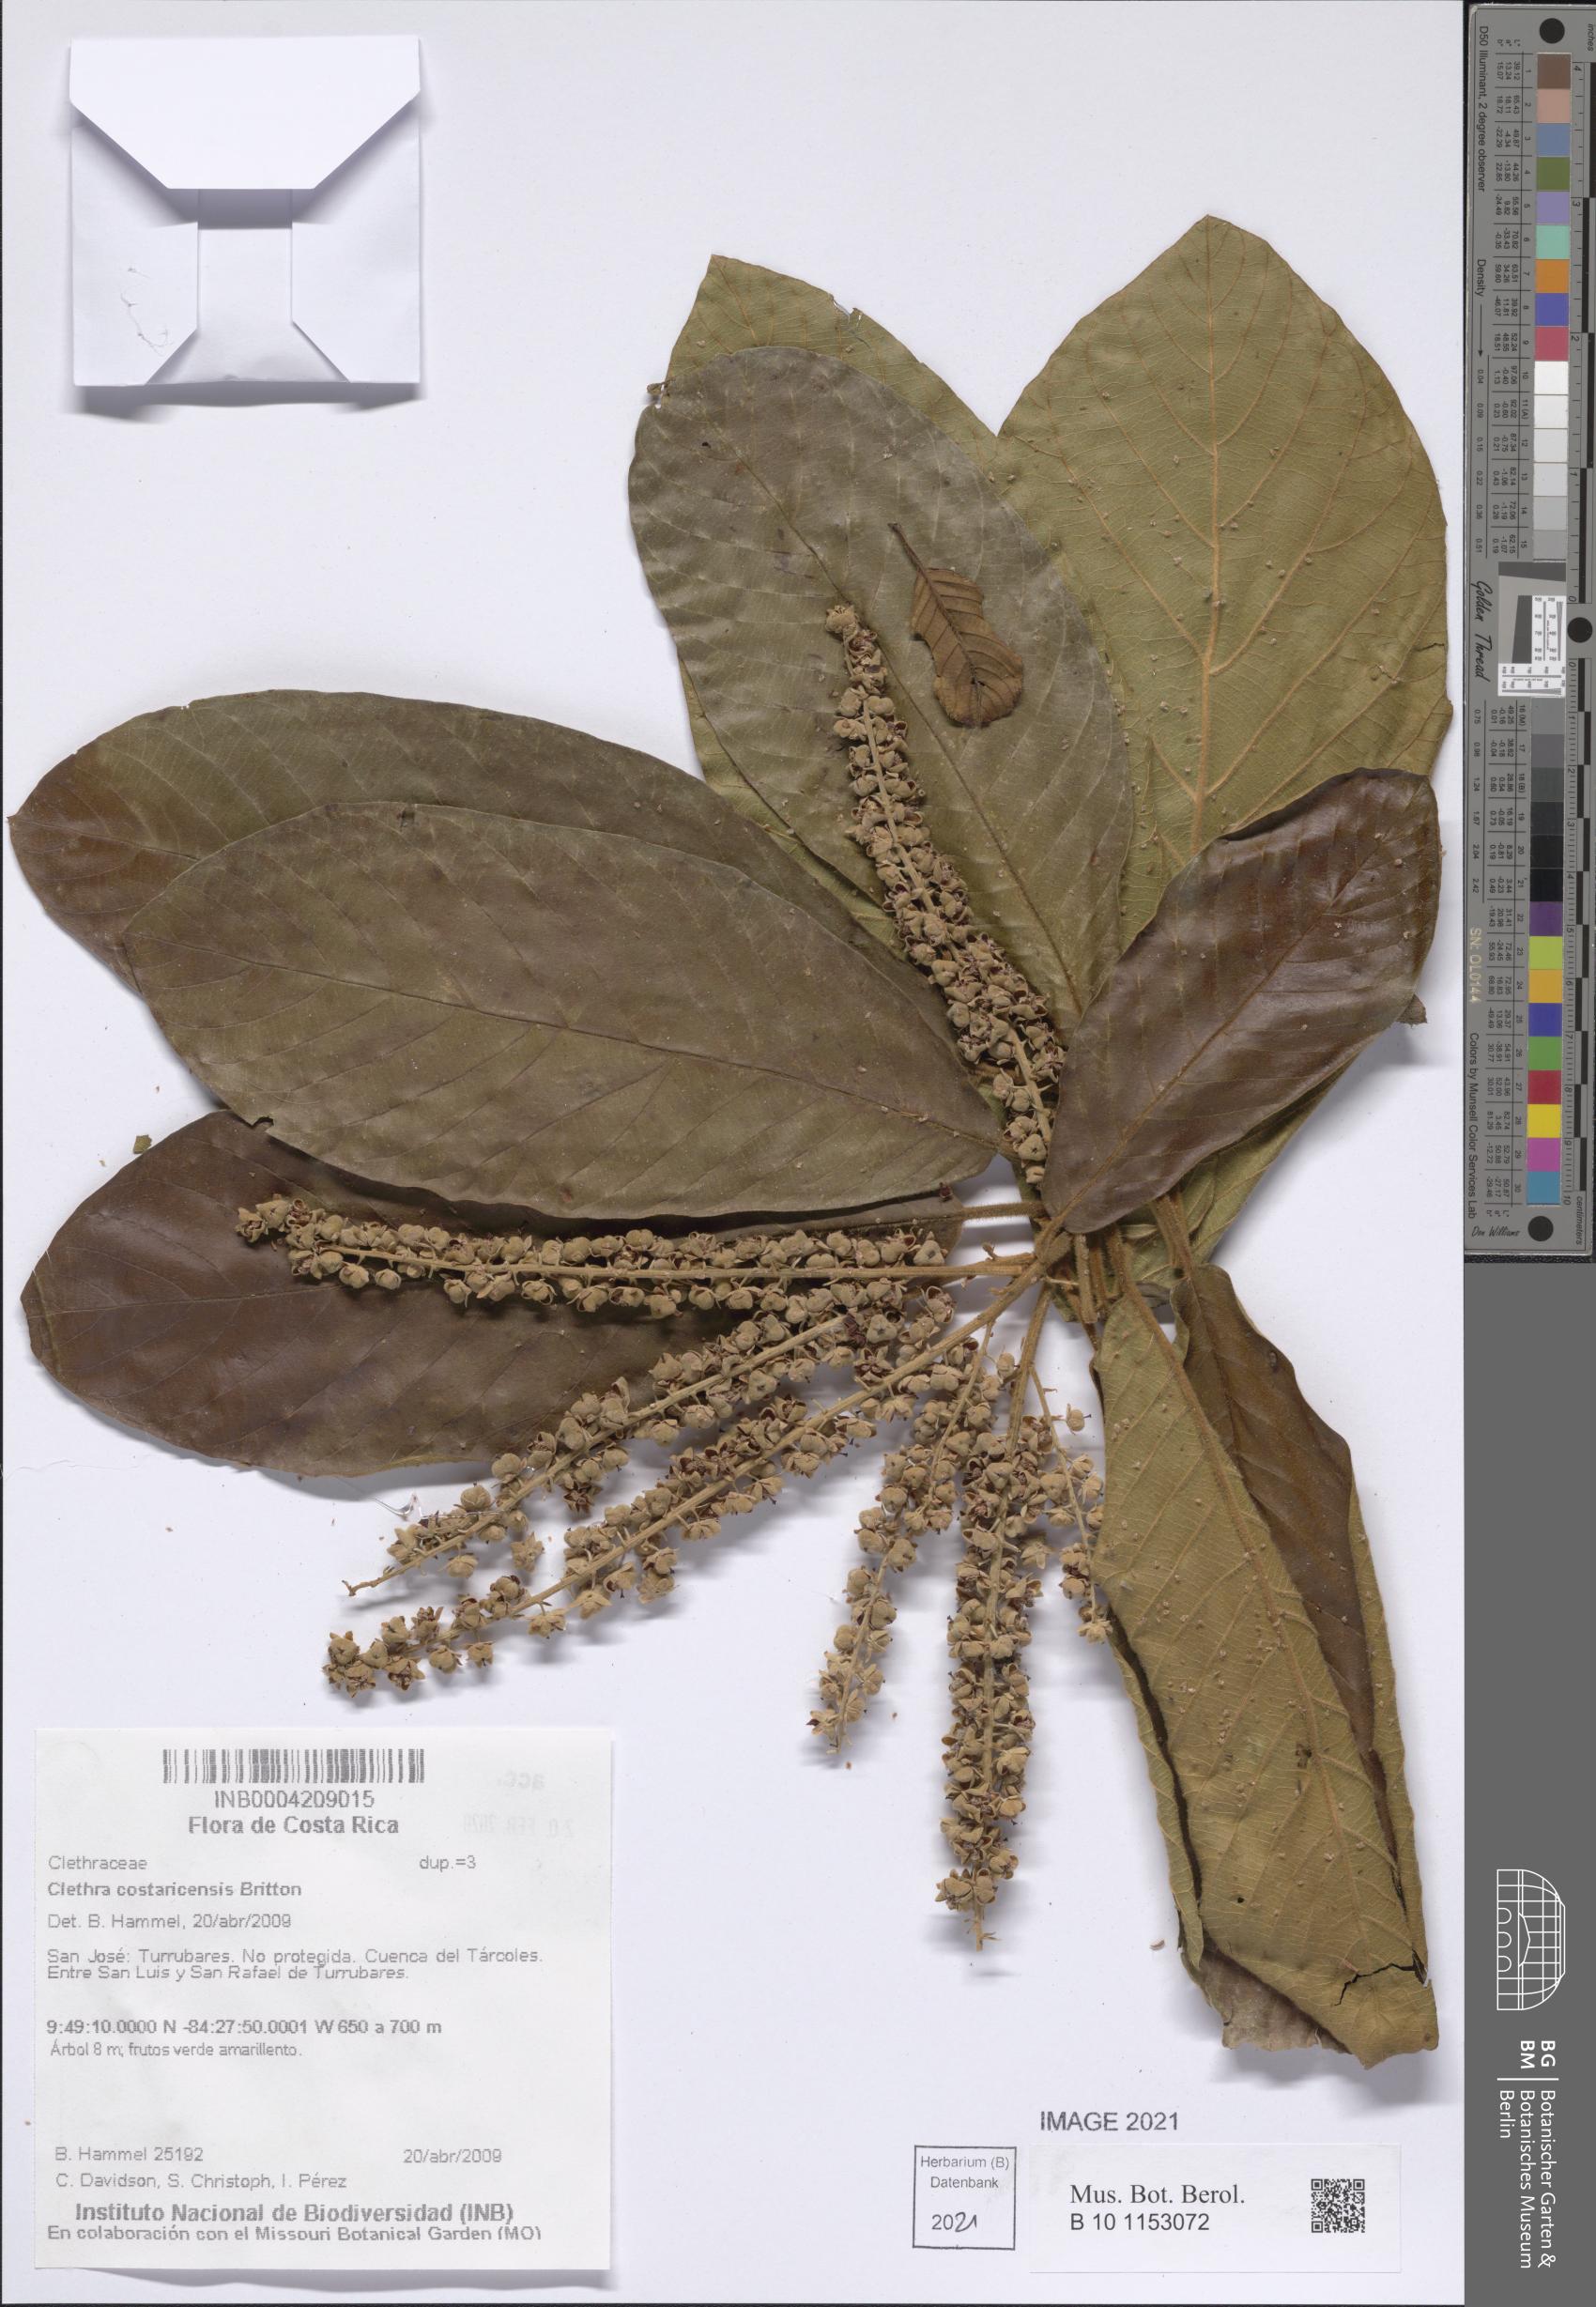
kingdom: Plantae
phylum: Tracheophyta
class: Magnoliopsida
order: Ericales
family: Clethraceae
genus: Clethra
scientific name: Clethra costaricensis
